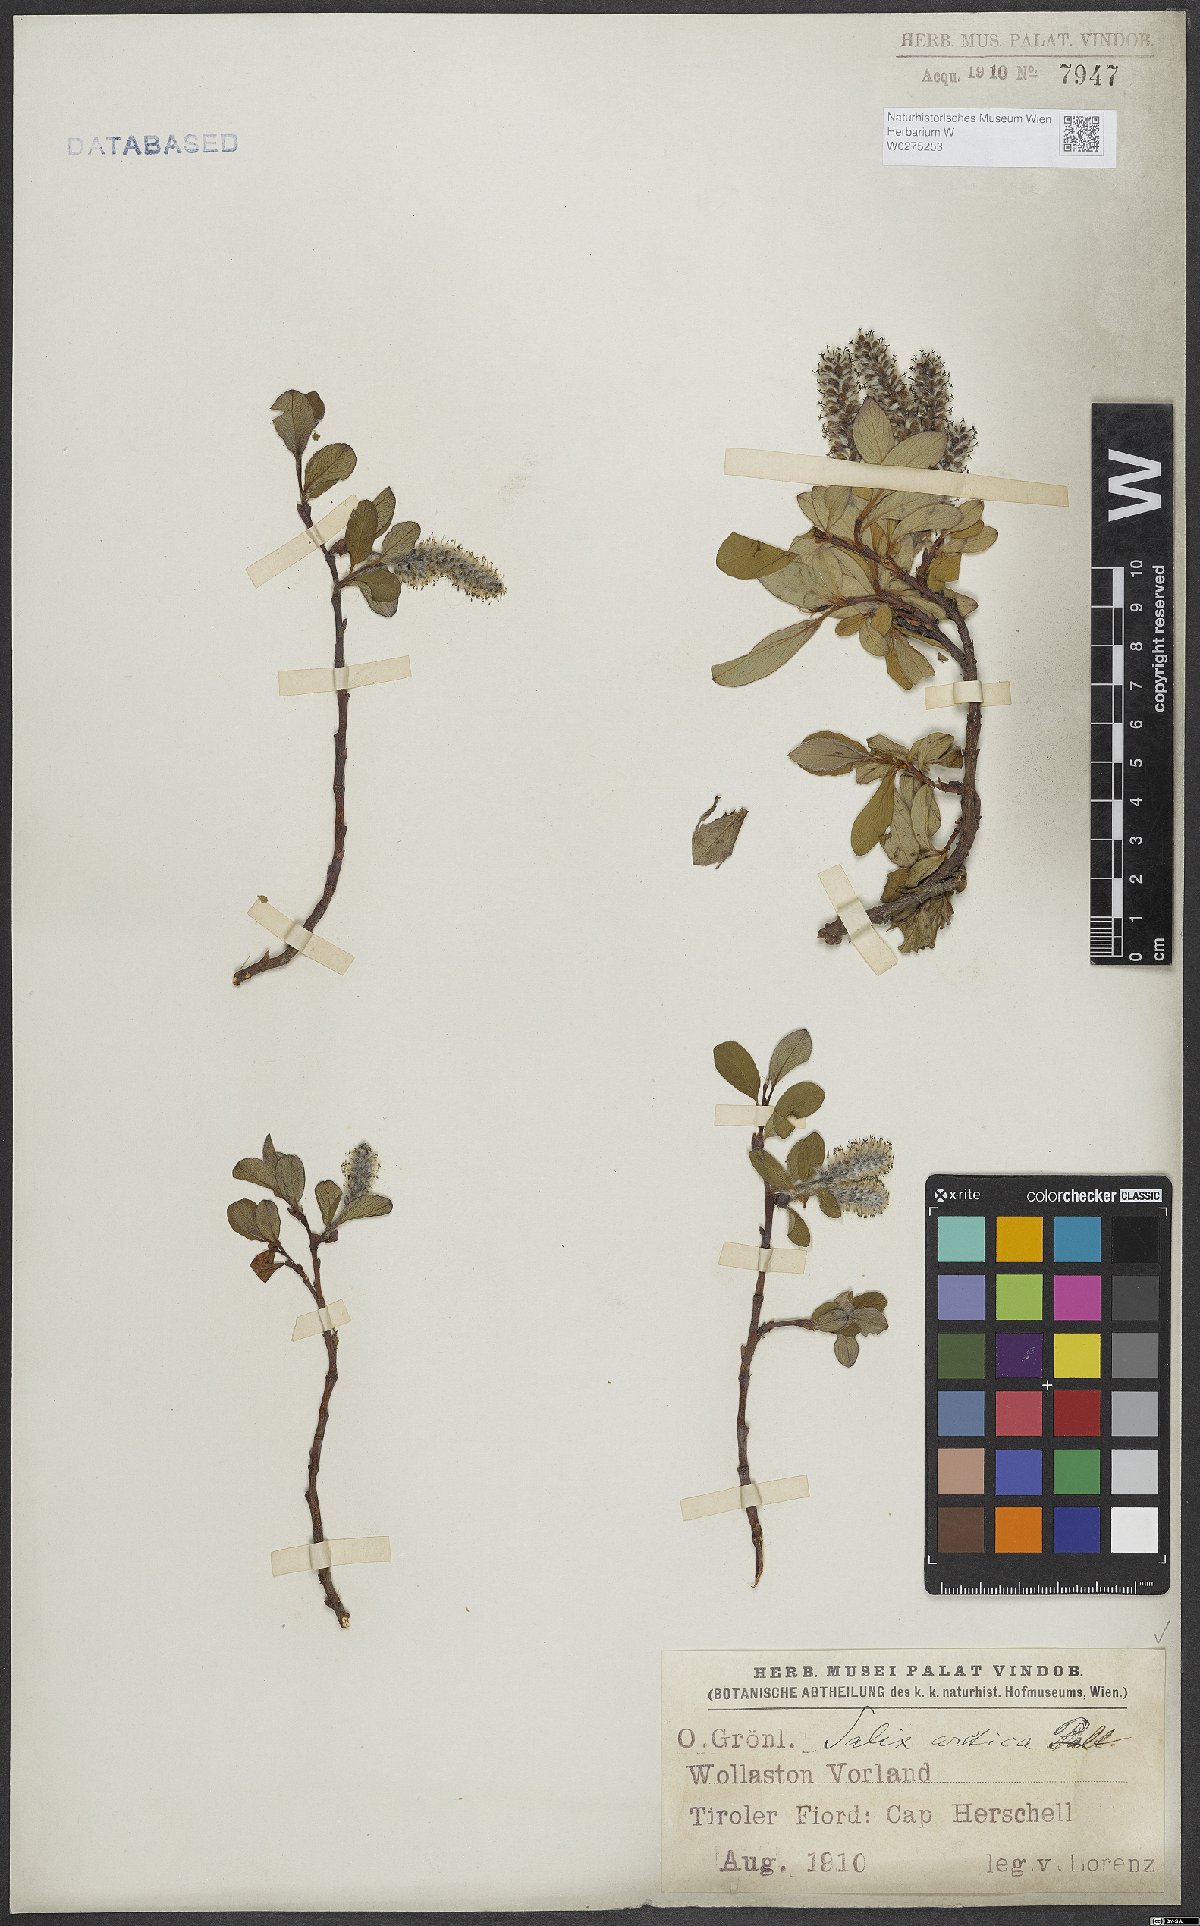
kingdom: Plantae
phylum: Tracheophyta
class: Magnoliopsida
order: Malpighiales
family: Salicaceae
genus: Salix
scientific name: Salix arctica
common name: Arctic willow
